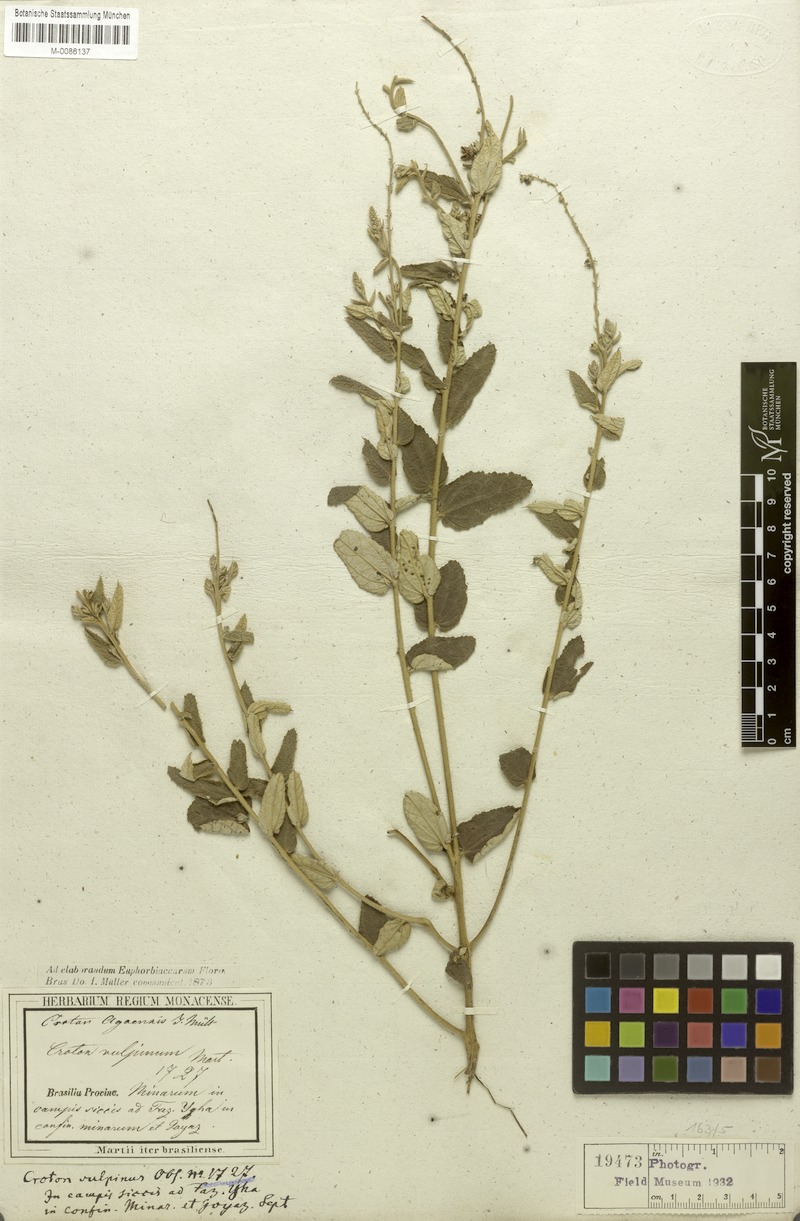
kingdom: Plantae
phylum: Tracheophyta
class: Magnoliopsida
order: Malpighiales
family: Euphorbiaceae
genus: Croton
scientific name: Croton agoensis
